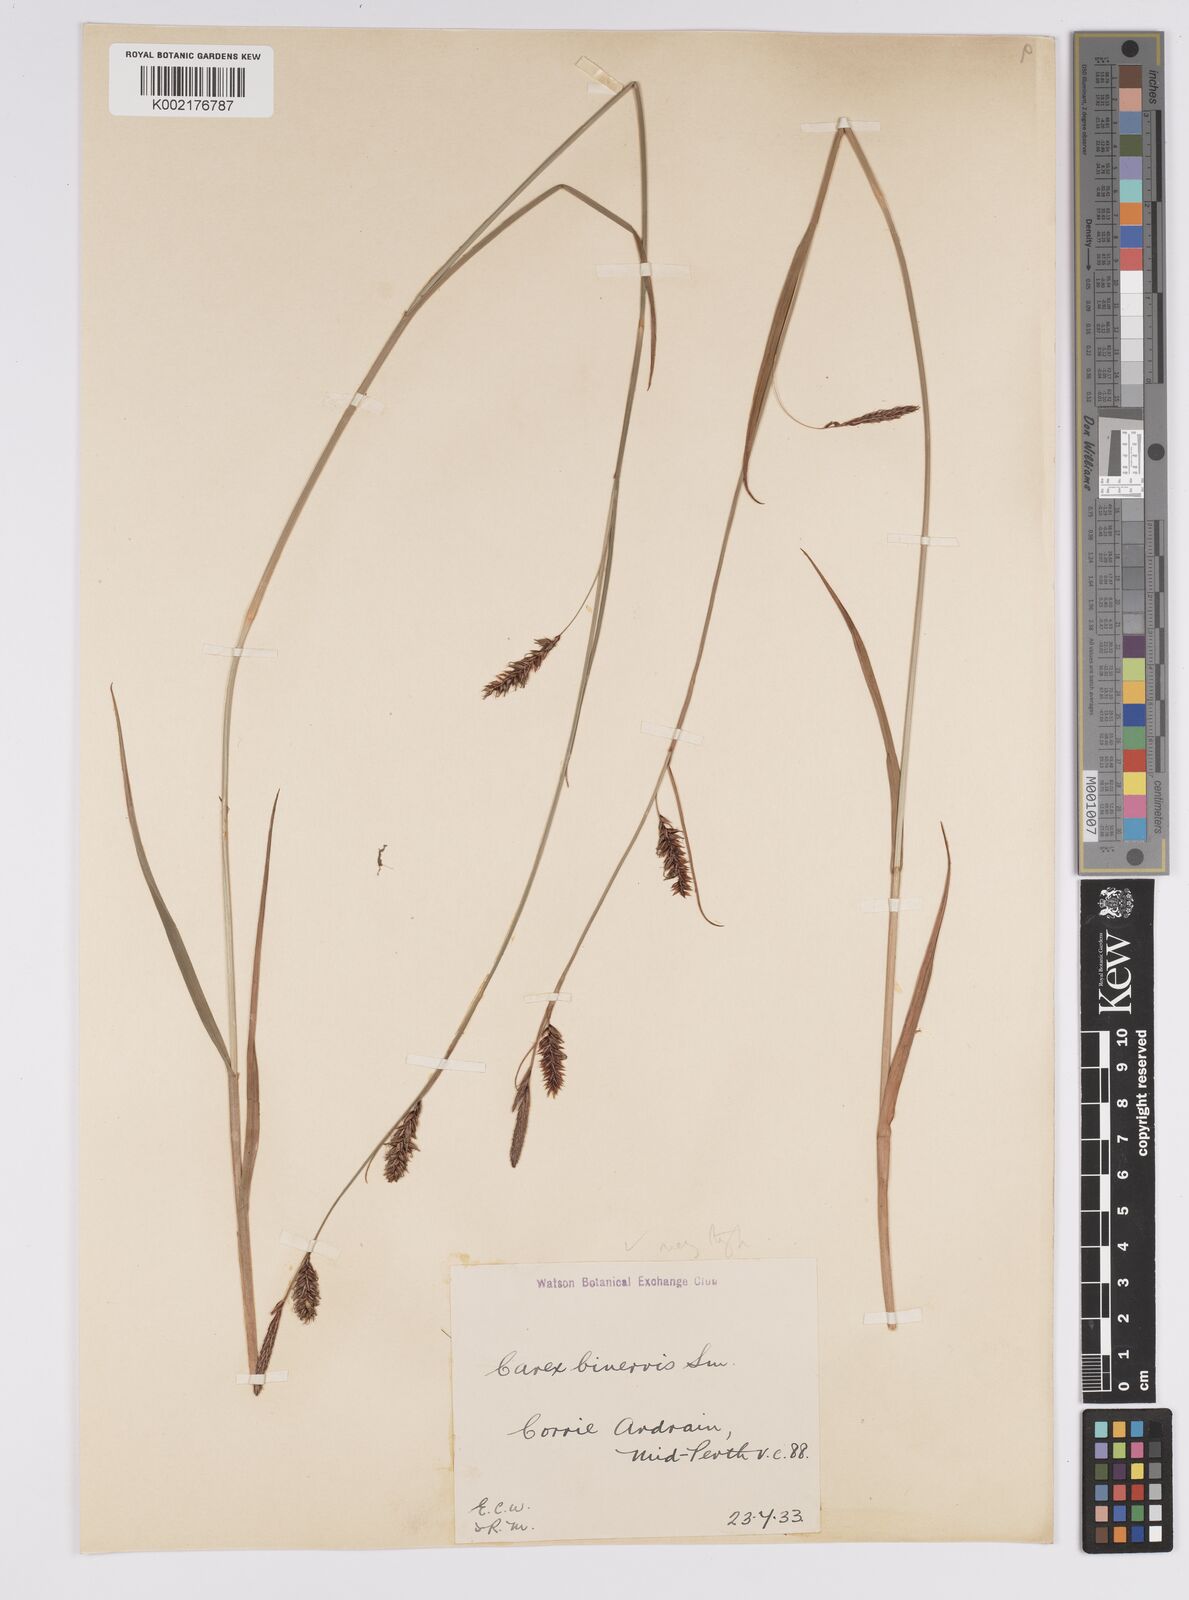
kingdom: Plantae
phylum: Tracheophyta
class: Liliopsida
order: Poales
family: Cyperaceae
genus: Carex
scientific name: Carex binervis
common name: Green-ribbed sedge
